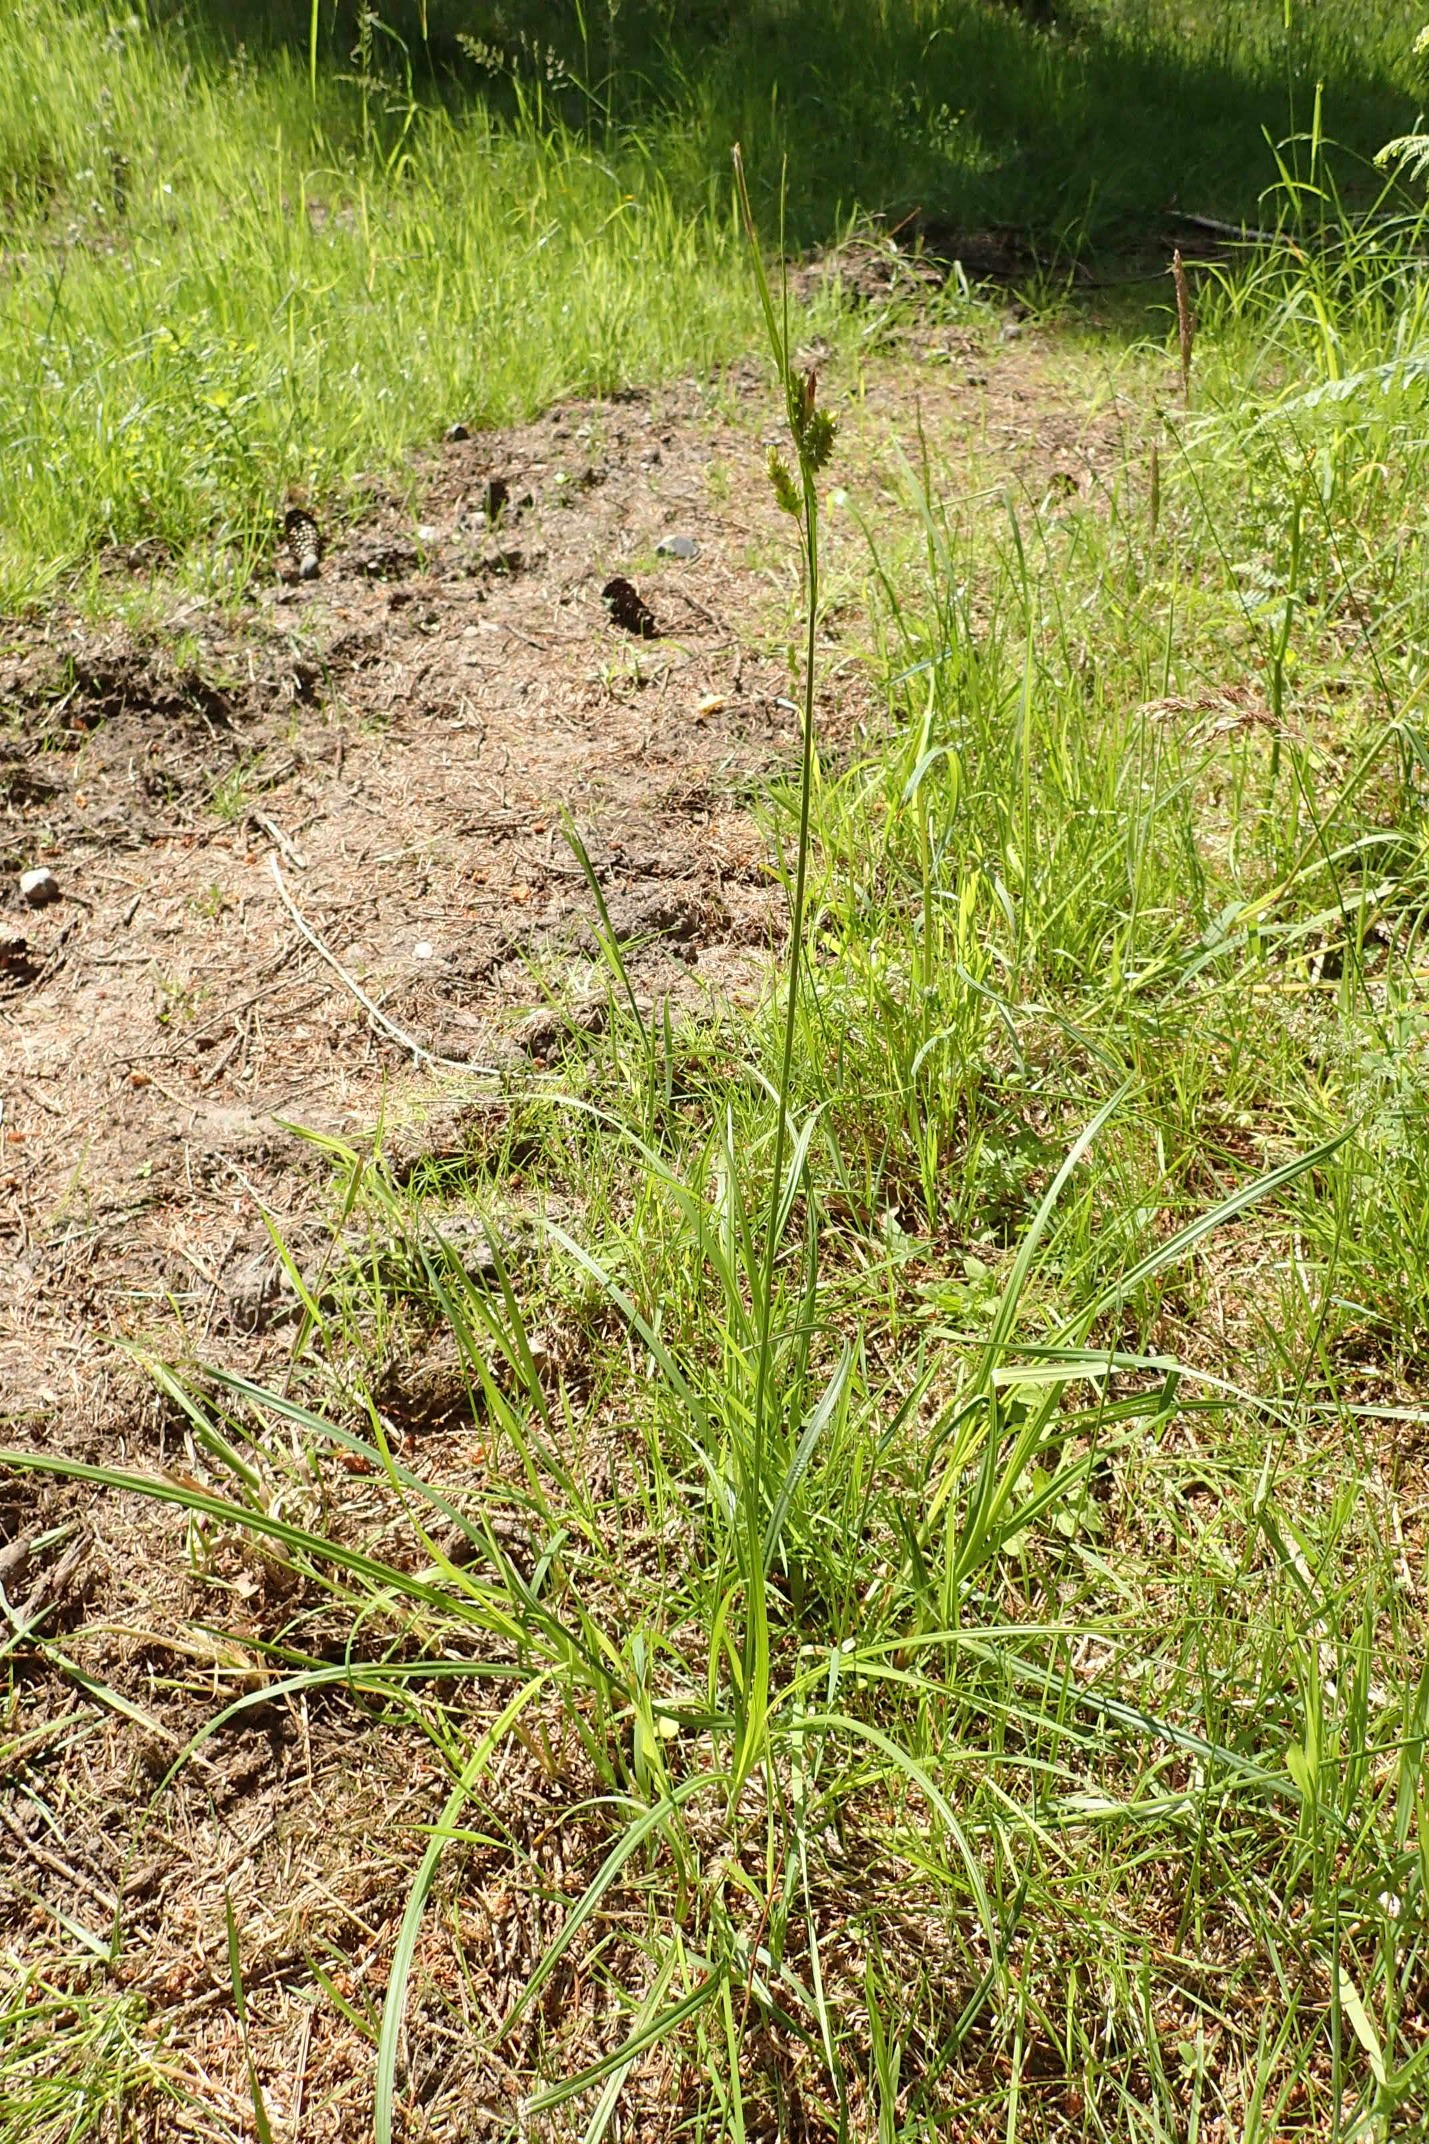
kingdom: Plantae
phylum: Tracheophyta
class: Liliopsida
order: Poales
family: Cyperaceae
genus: Carex
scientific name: Carex pallescens
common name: Bleg star
